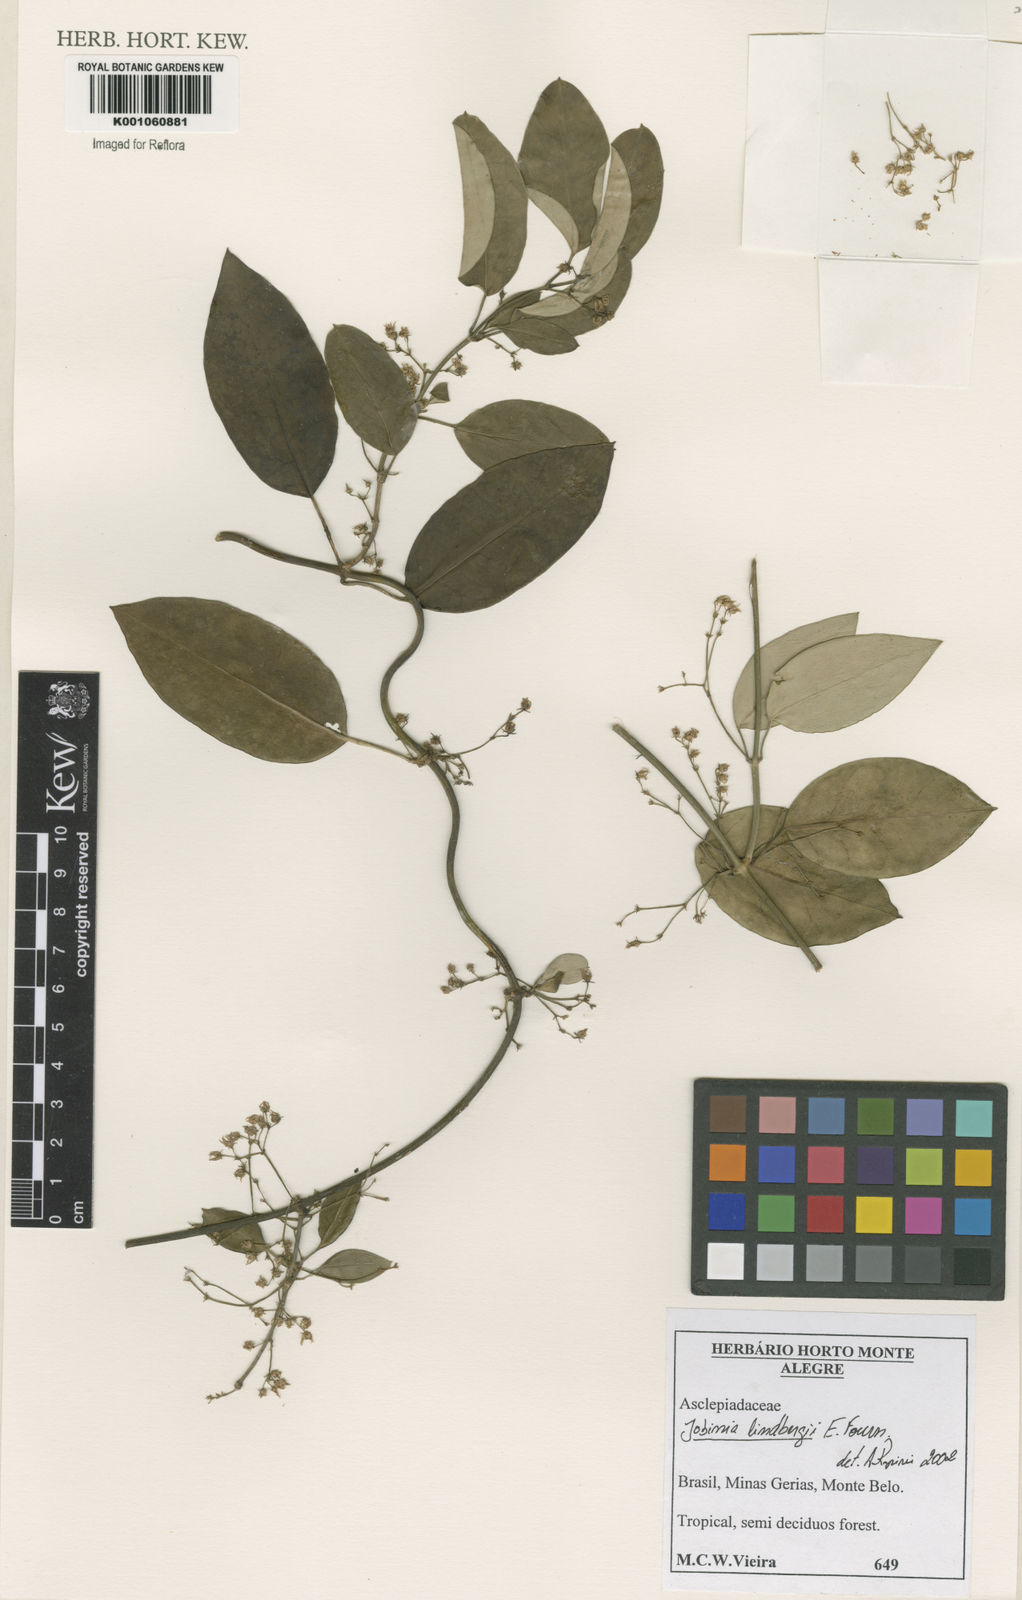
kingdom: Plantae
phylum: Tracheophyta
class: Magnoliopsida
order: Gentianales
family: Apocynaceae
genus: Jobinia
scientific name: Jobinia lindbergii
